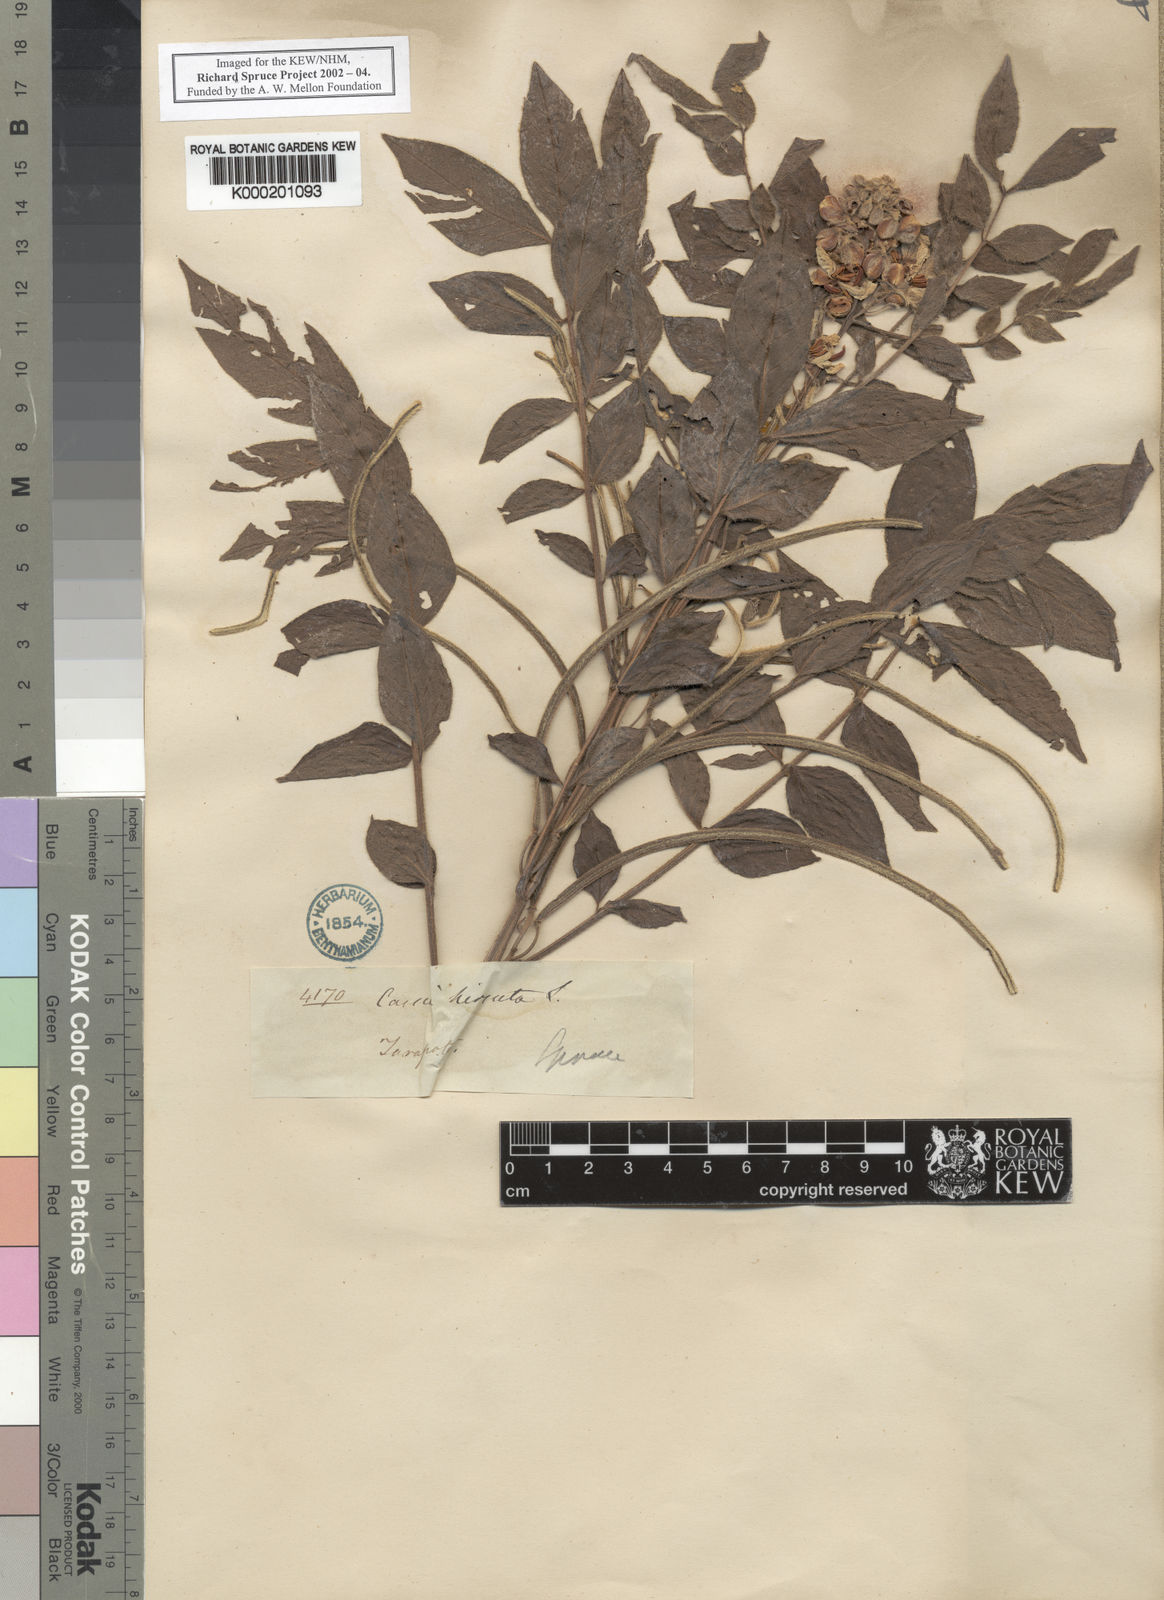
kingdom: Plantae
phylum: Tracheophyta
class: Magnoliopsida
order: Fabales
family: Fabaceae
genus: Senna
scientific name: Senna hirsuta
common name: Woolly senna
